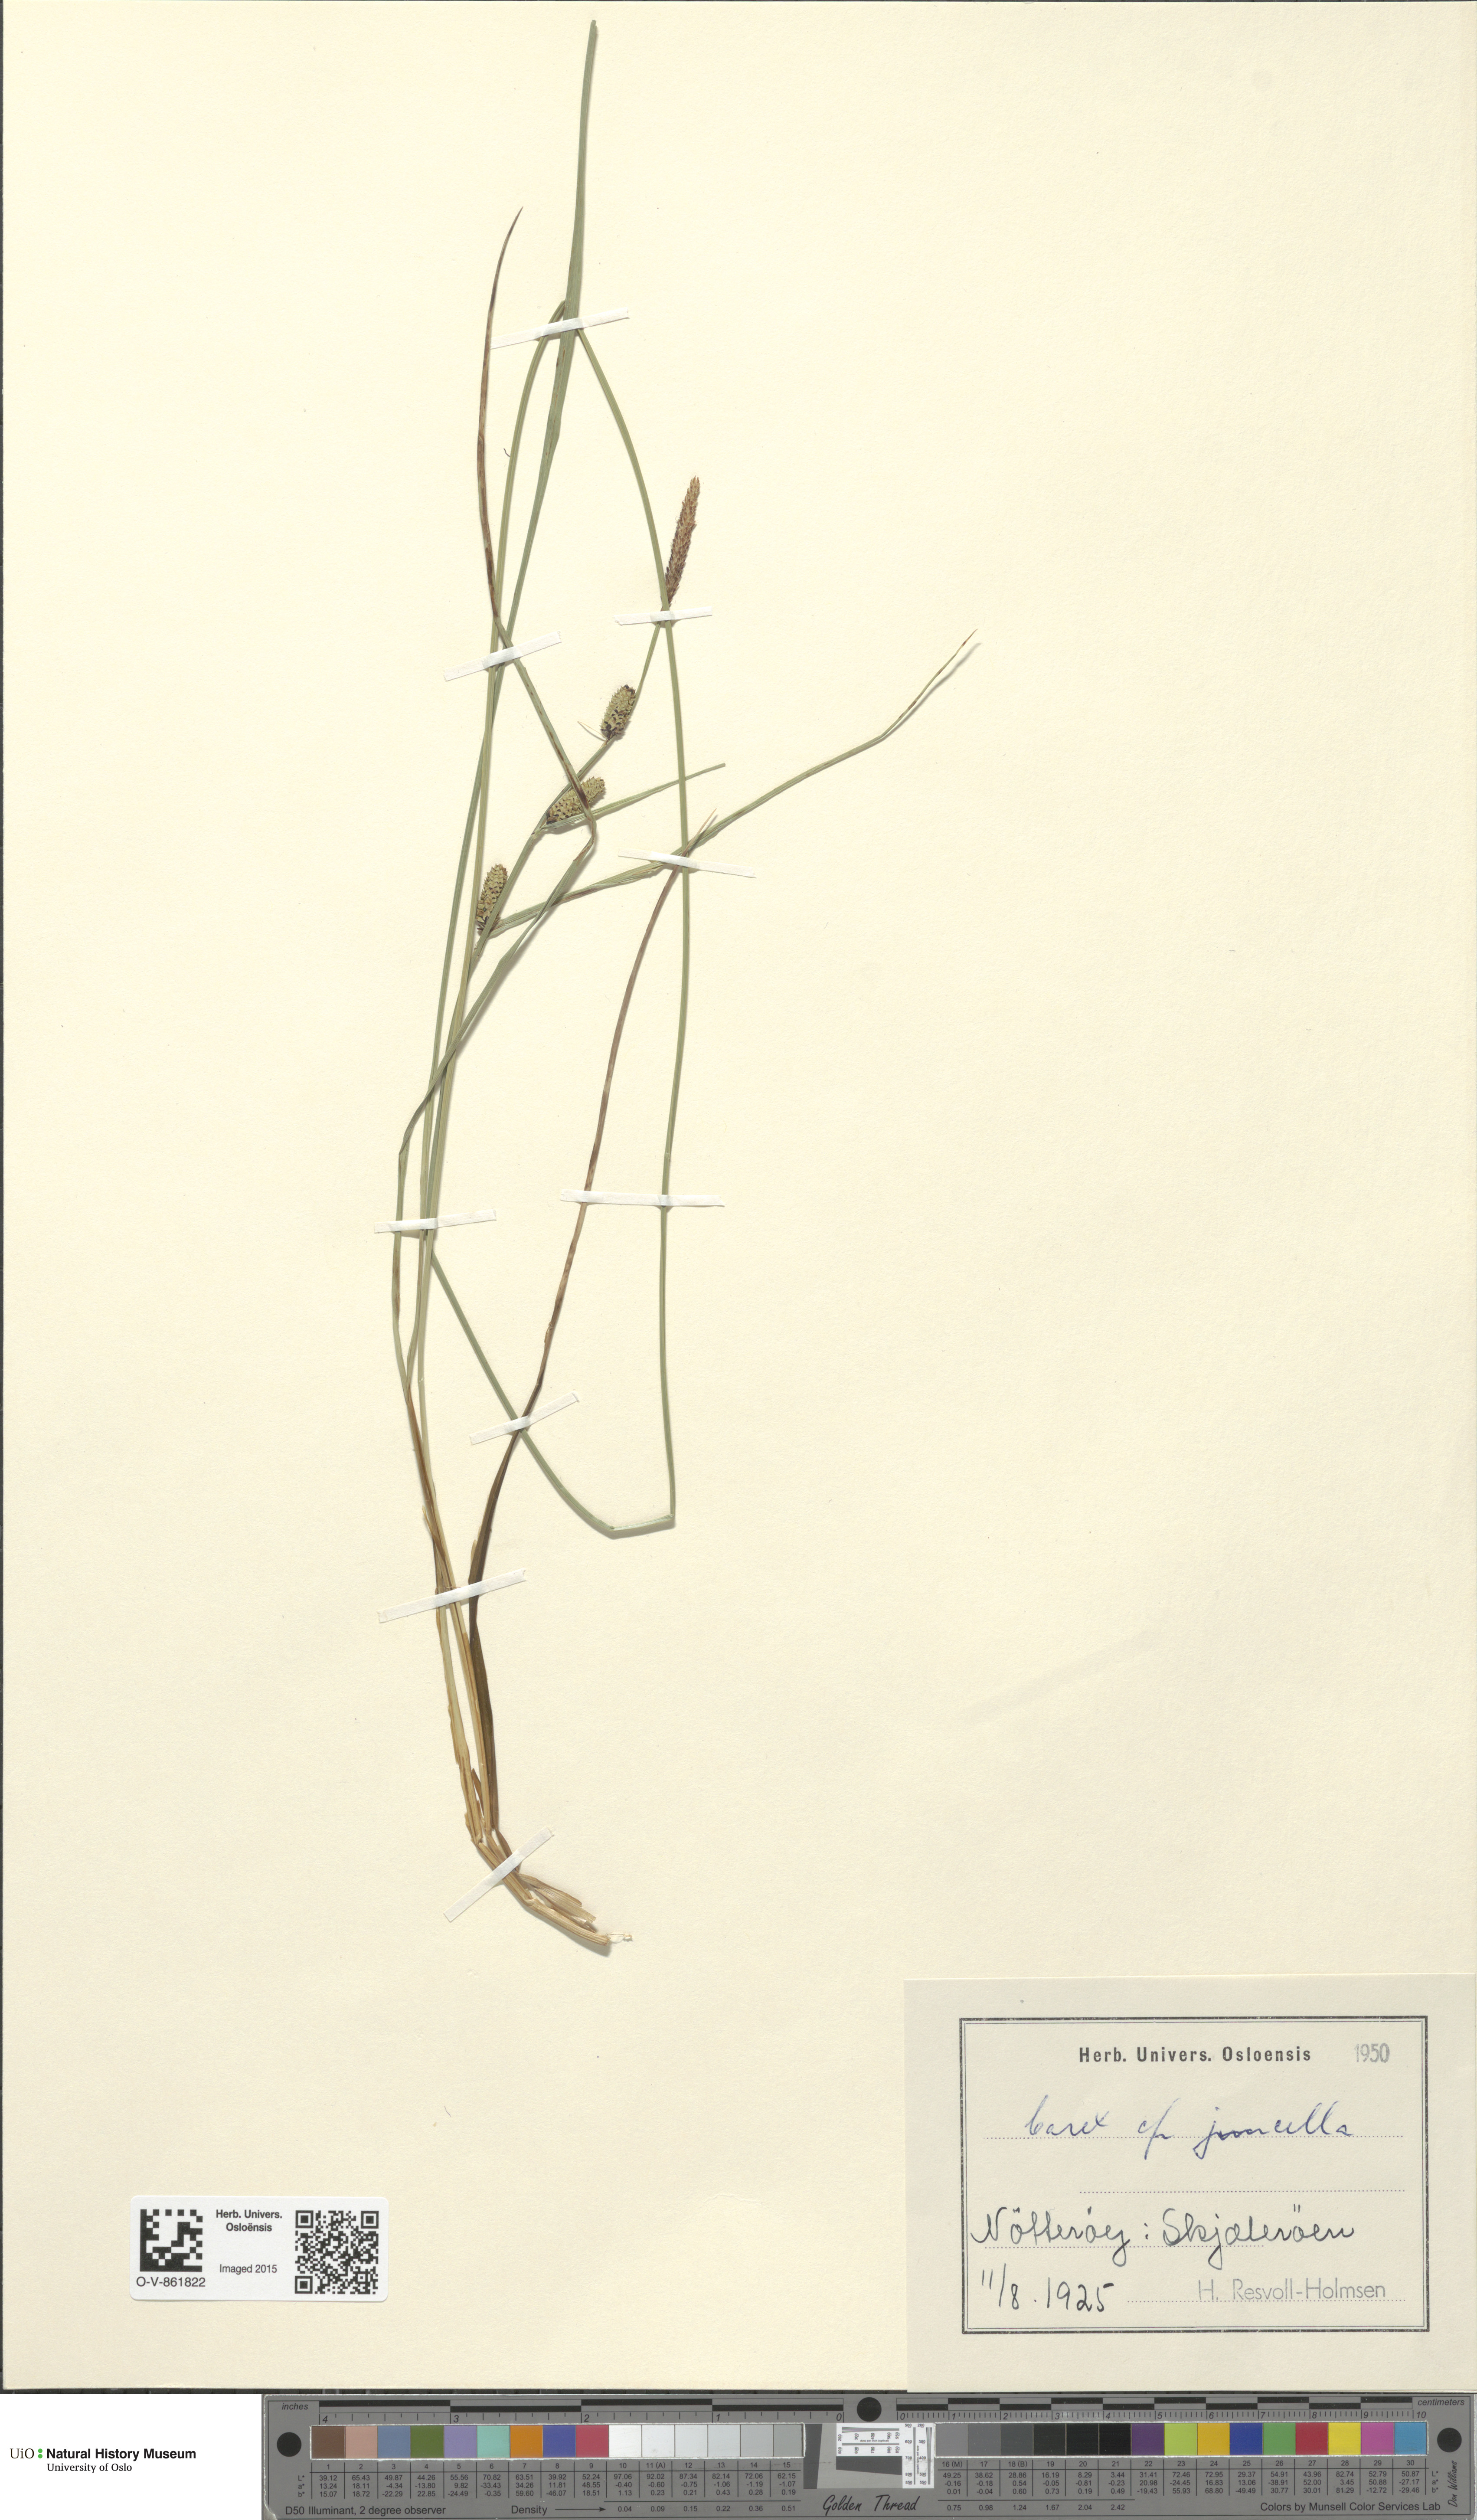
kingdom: Plantae
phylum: Tracheophyta
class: Liliopsida
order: Poales
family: Cyperaceae
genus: Carex
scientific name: Carex nigra
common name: Common sedge
